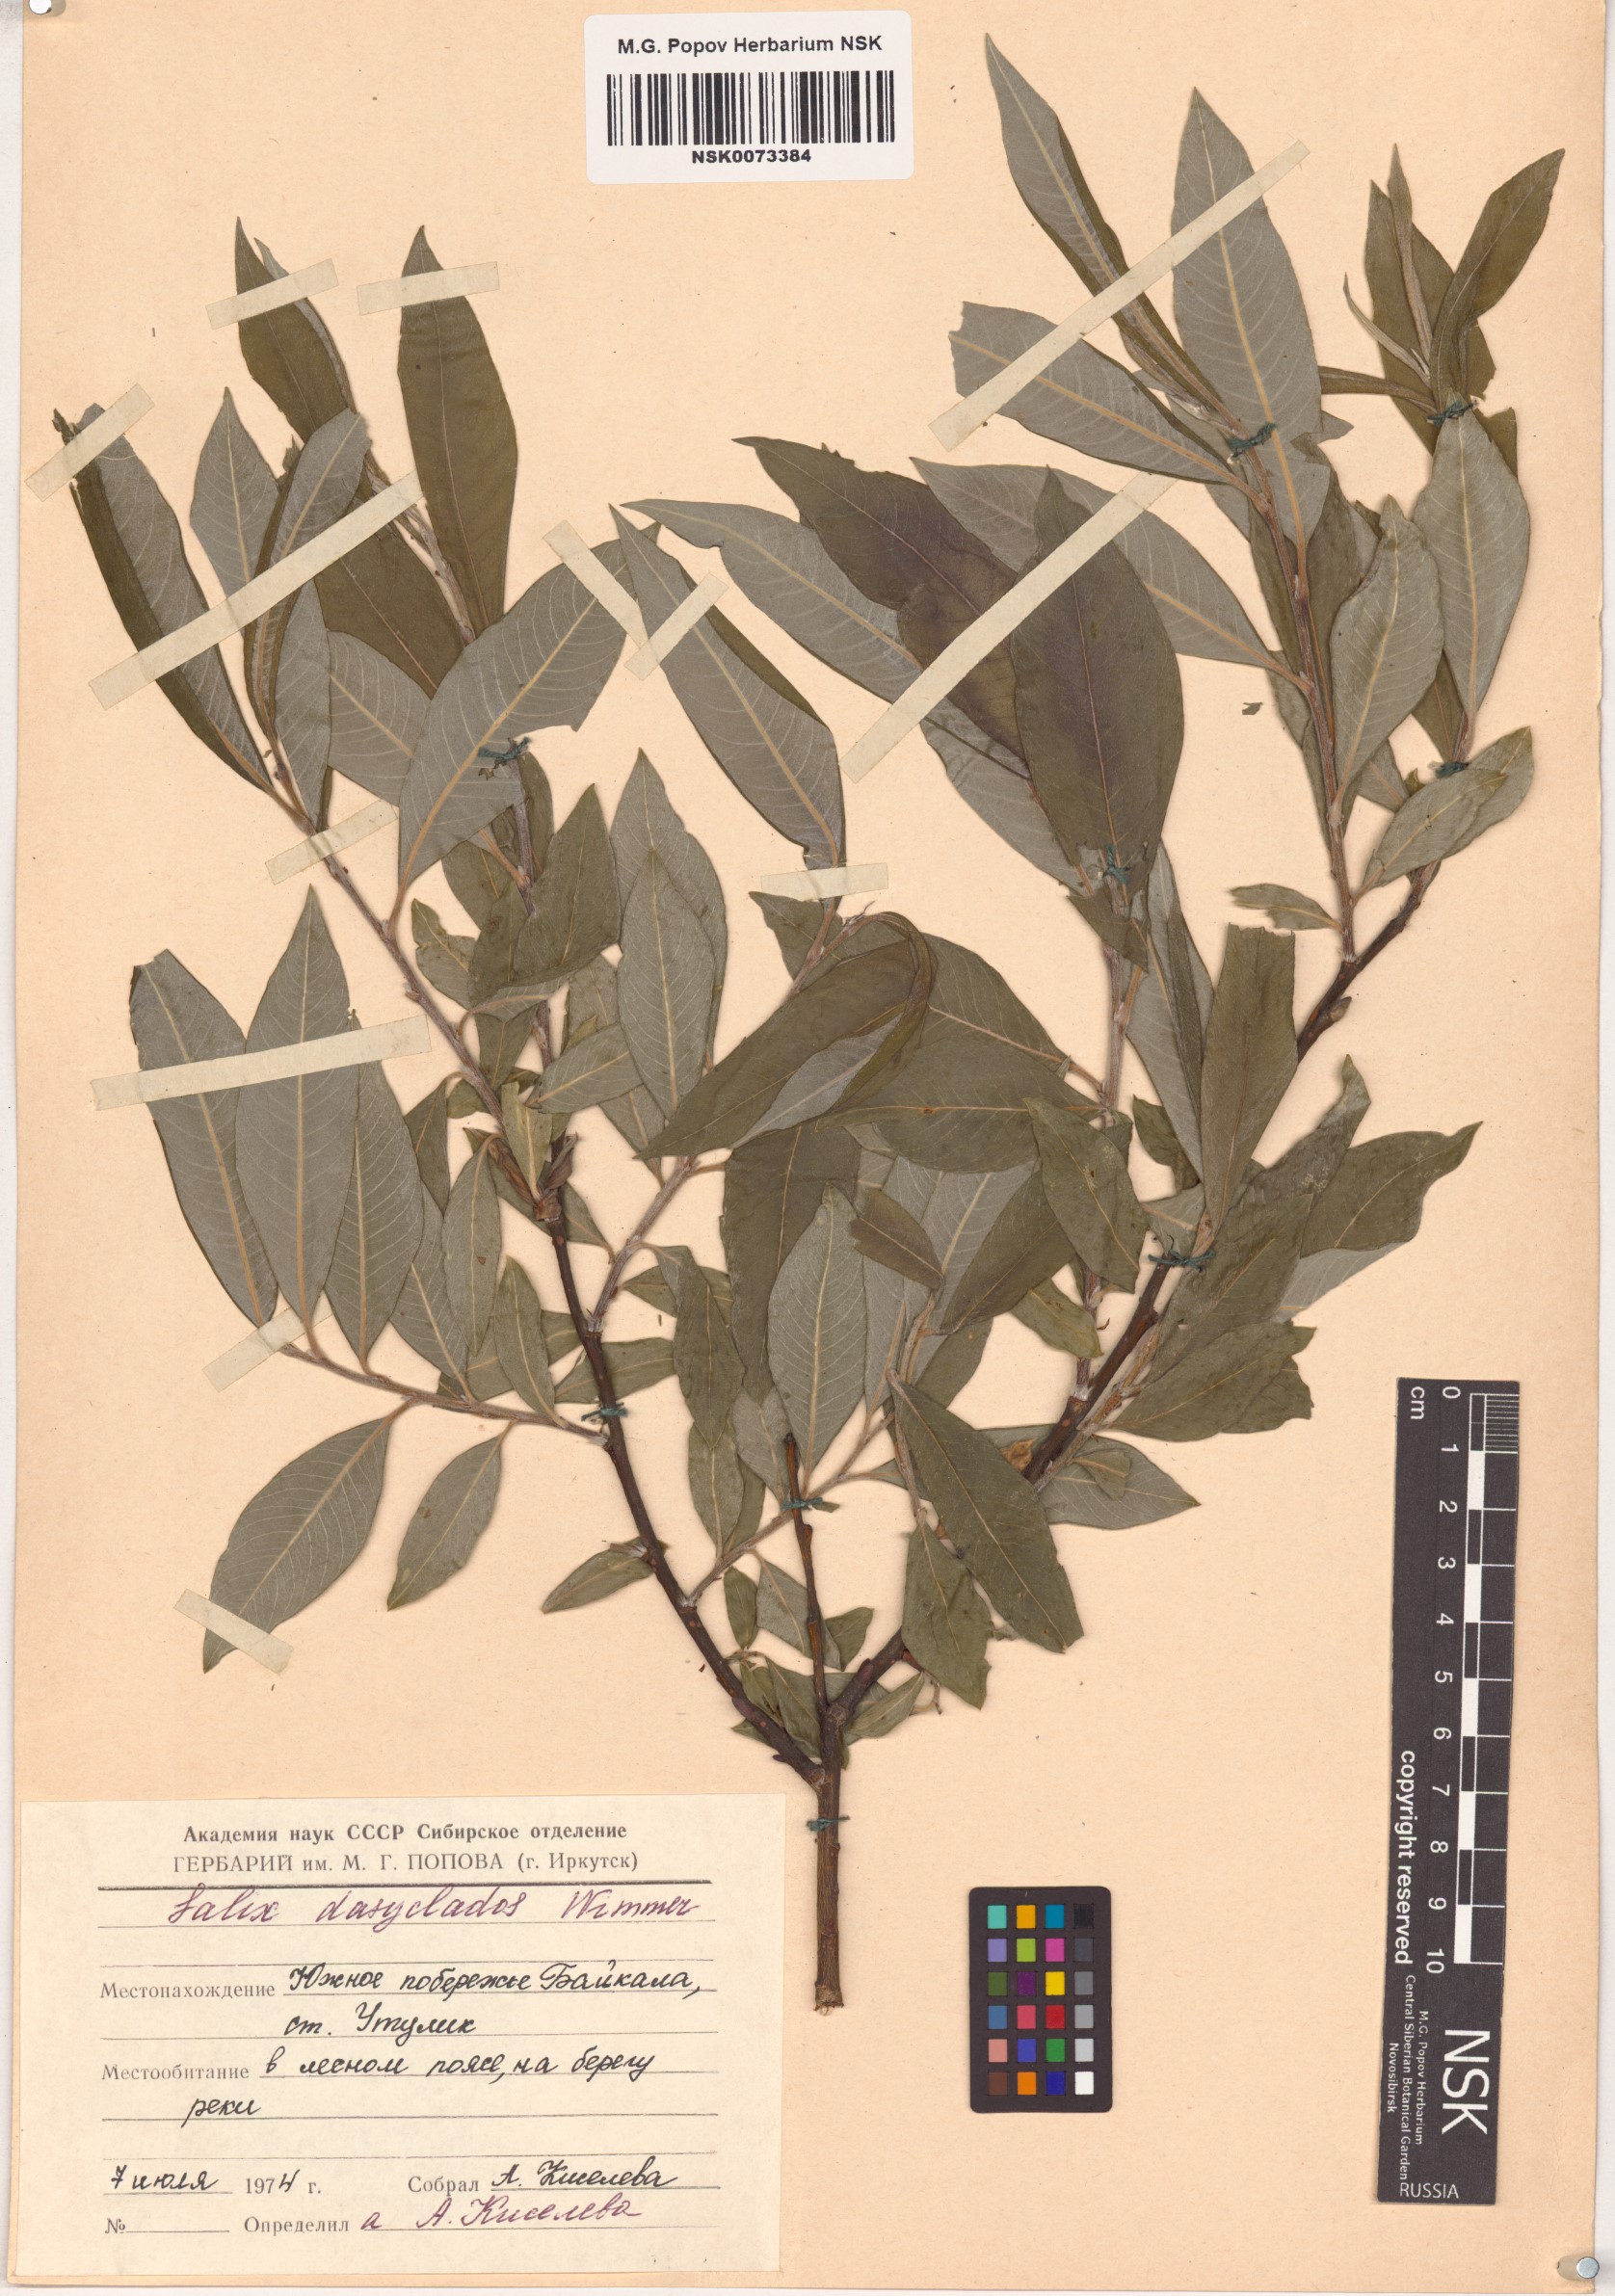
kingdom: Plantae
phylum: Tracheophyta
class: Magnoliopsida
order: Malpighiales
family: Salicaceae
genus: Salix
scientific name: Salix gmelinii
